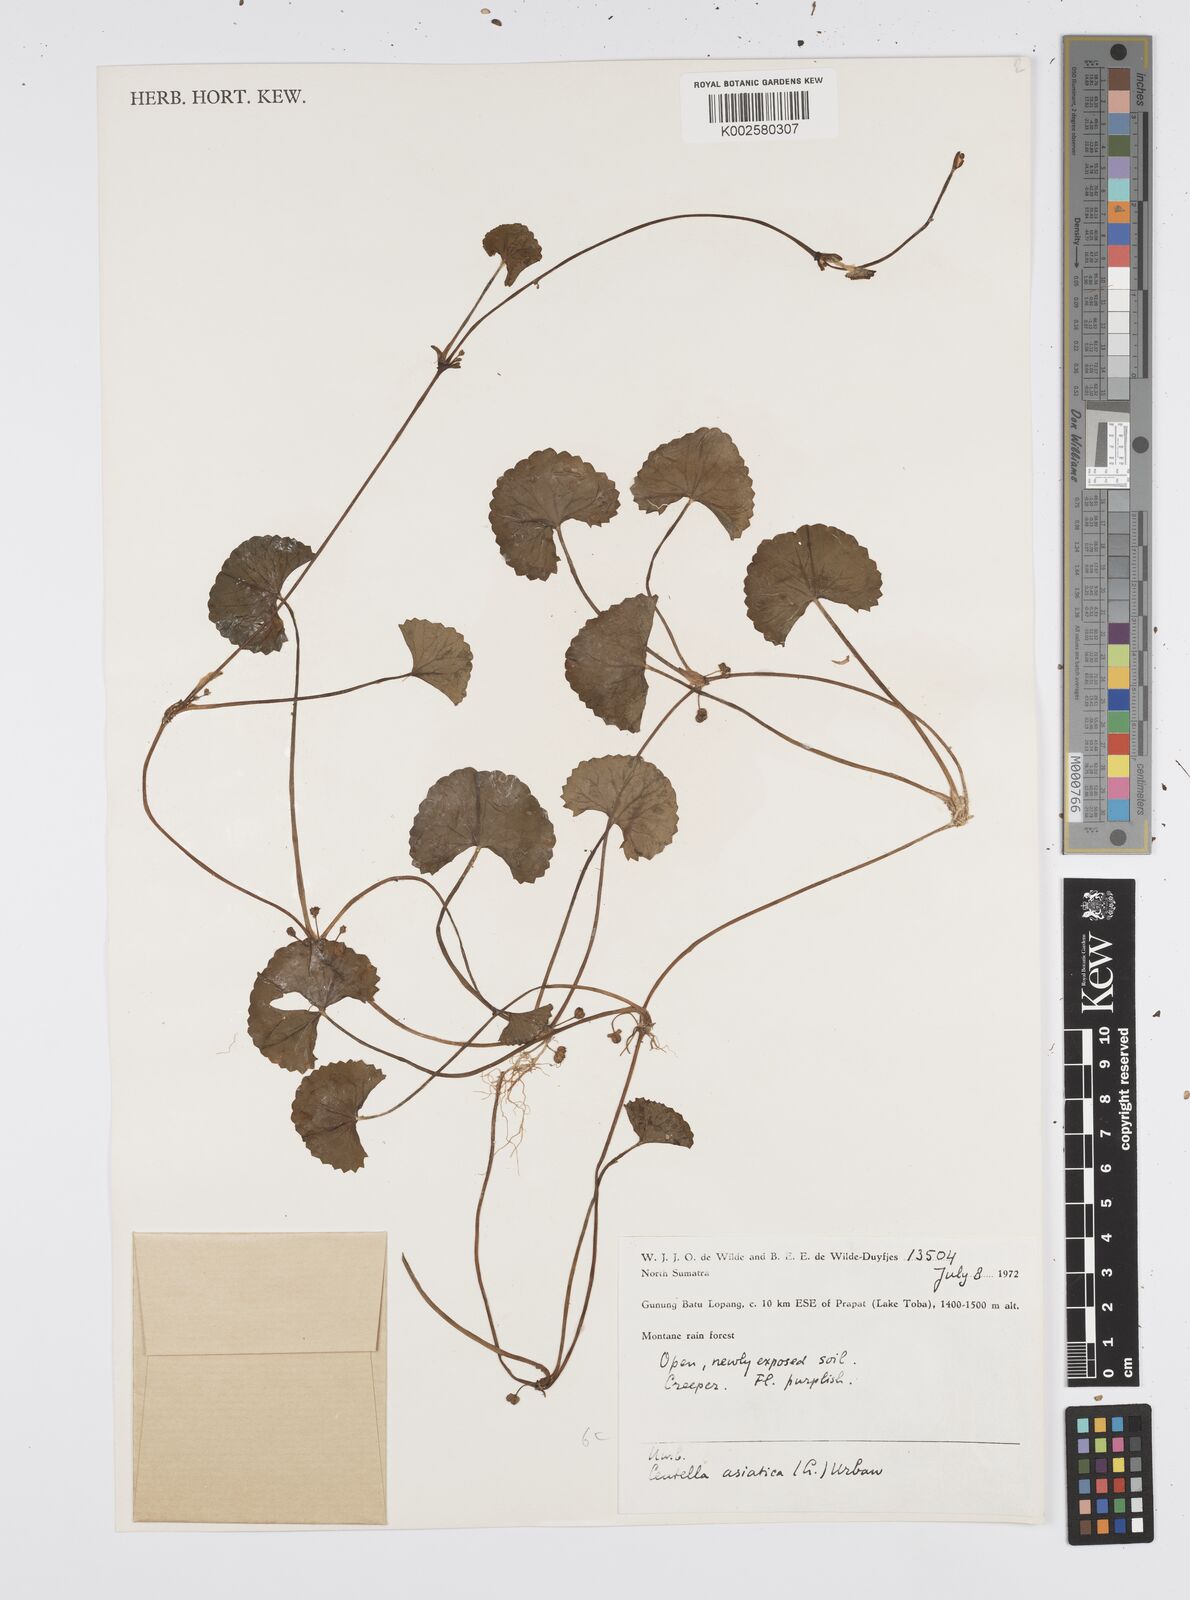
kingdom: Plantae
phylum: Tracheophyta
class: Magnoliopsida
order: Apiales
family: Apiaceae
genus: Centella
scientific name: Centella asiatica
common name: Spadeleaf
